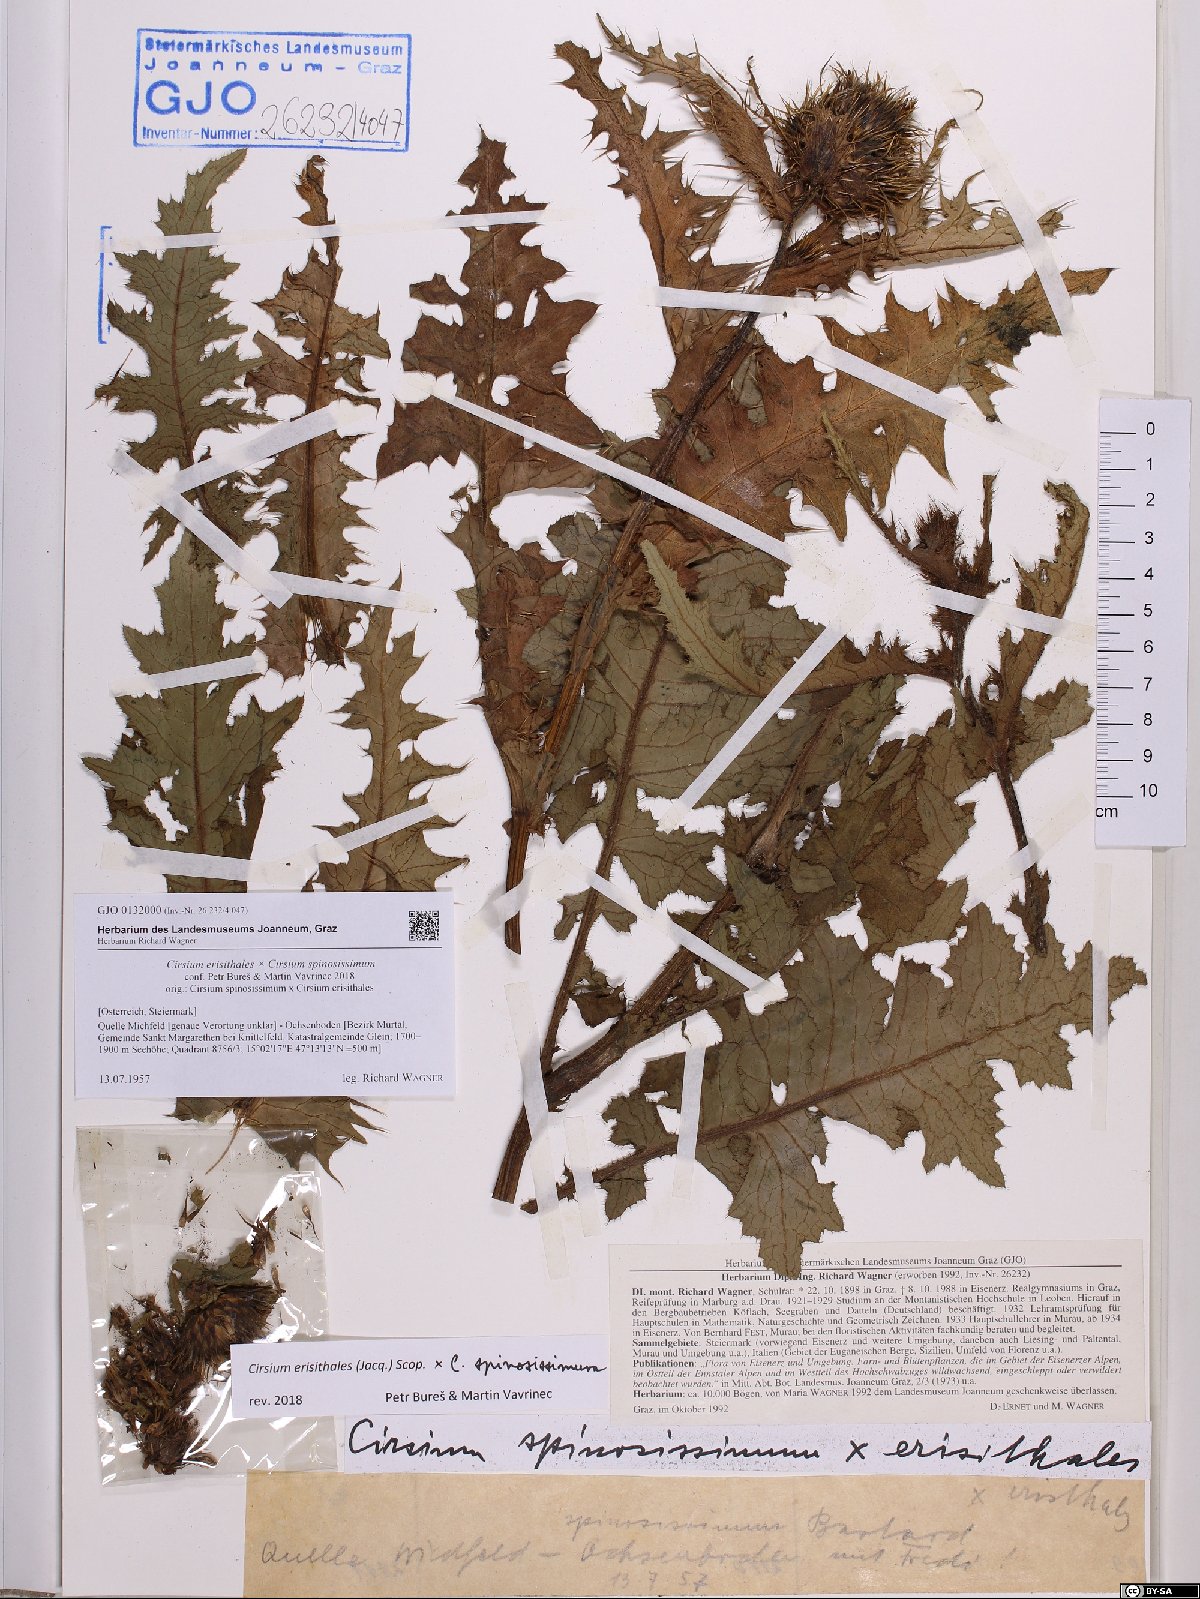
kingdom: Plantae
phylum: Tracheophyta
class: Magnoliopsida
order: Asterales
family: Asteraceae
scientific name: Asteraceae
